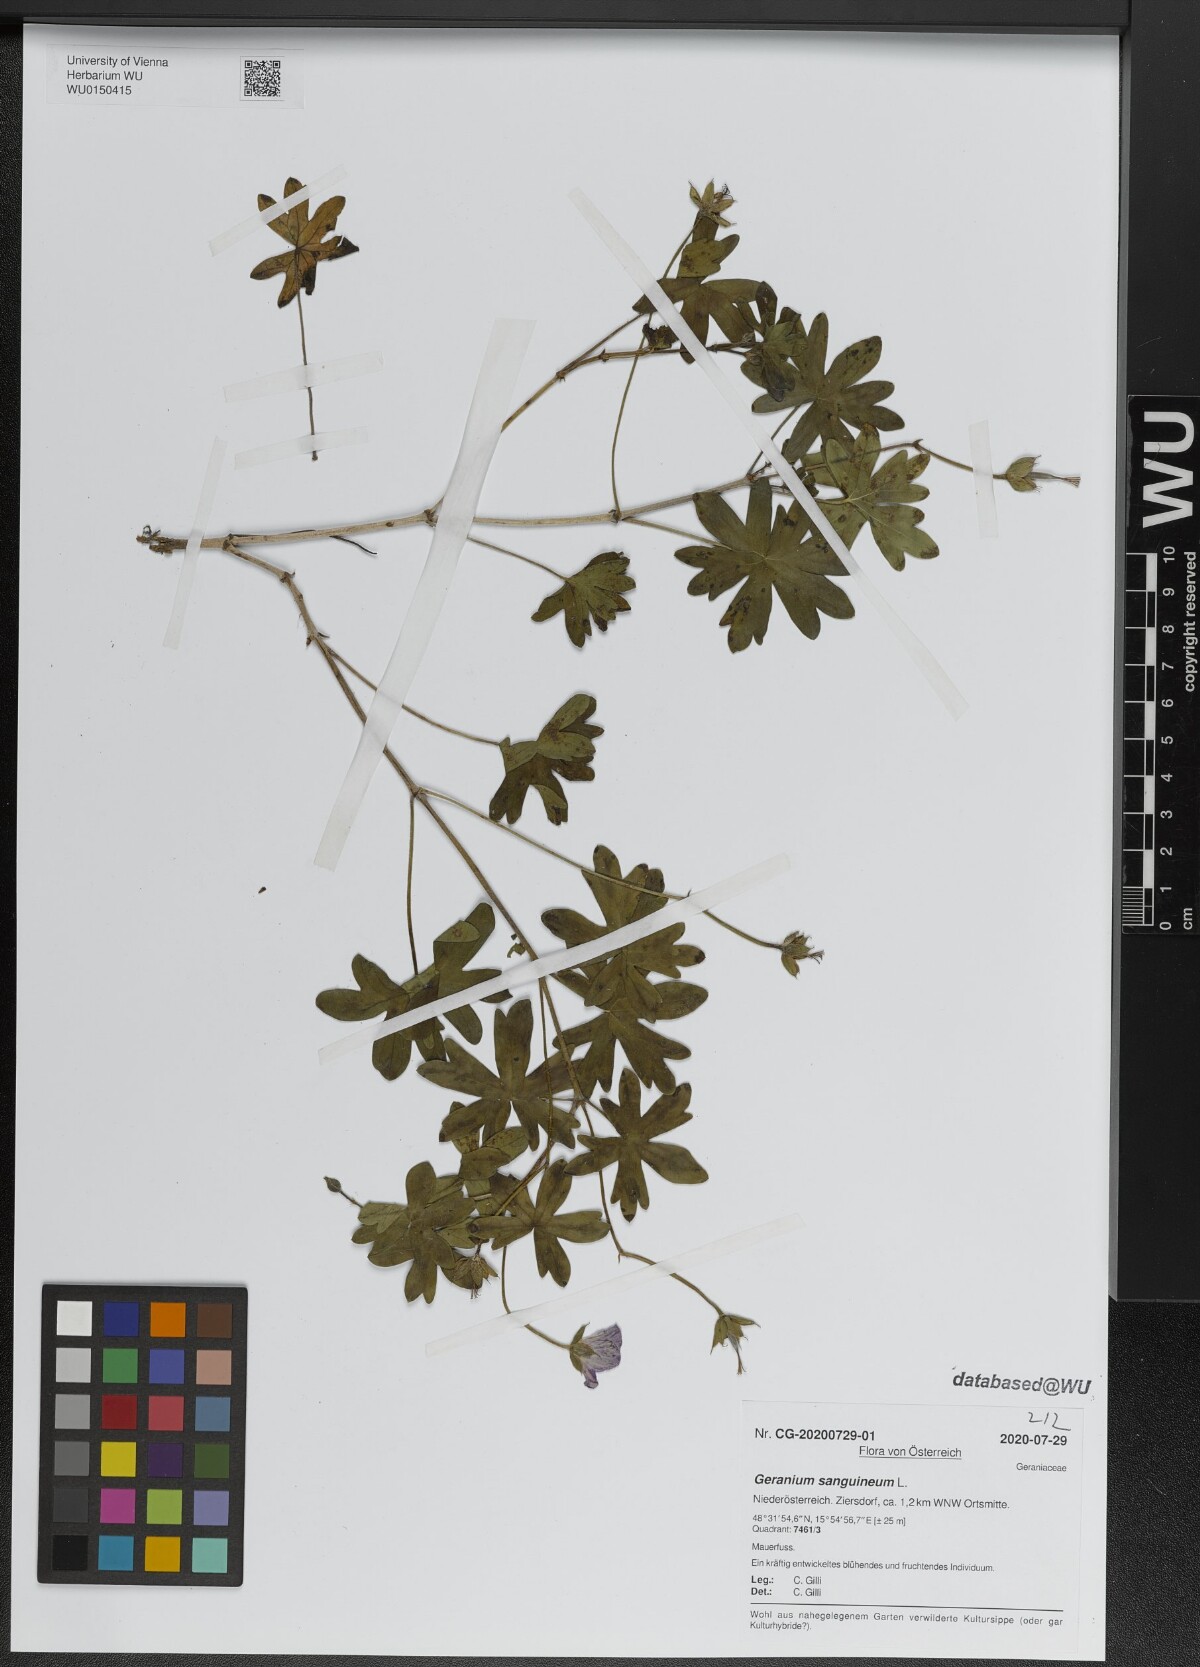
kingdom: Plantae
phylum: Tracheophyta
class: Magnoliopsida
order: Geraniales
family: Geraniaceae
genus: Geranium
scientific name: Geranium sanguineum
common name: Bloody crane's-bill
